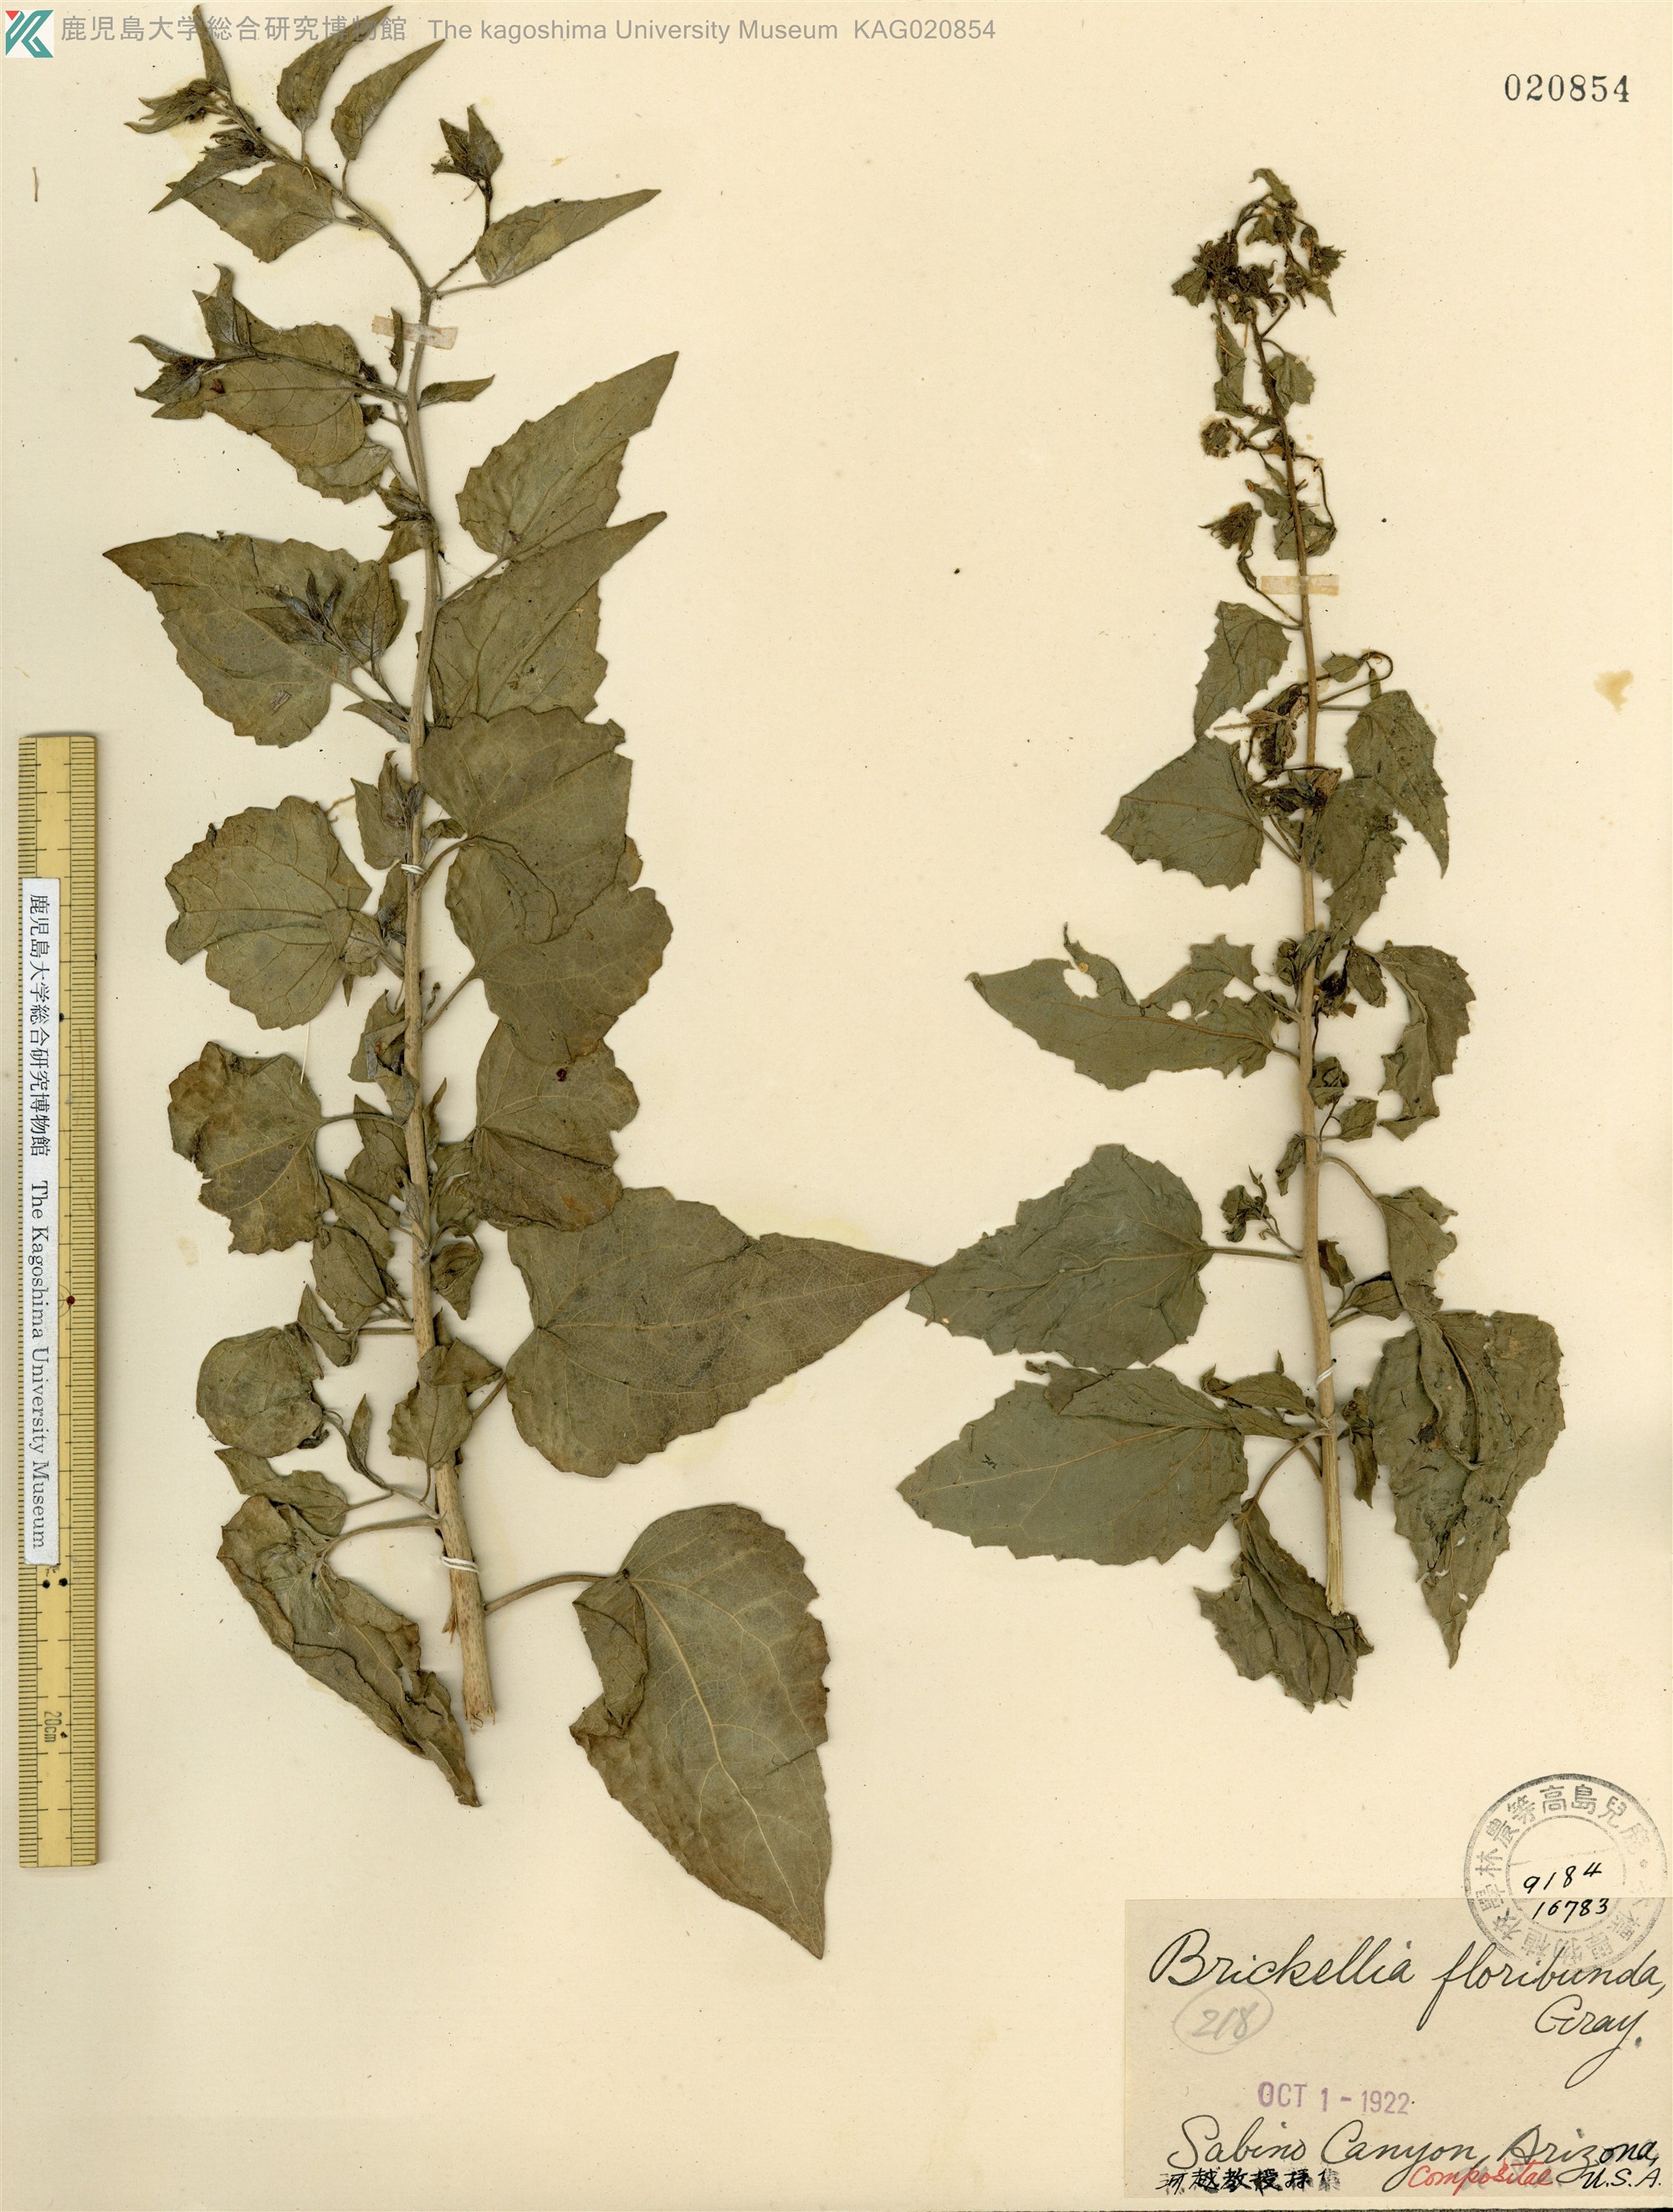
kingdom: Plantae
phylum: Tracheophyta
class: Magnoliopsida
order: Asterales
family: Asteraceae
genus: Brickellia
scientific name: Brickellia californica
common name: California brickellbush
